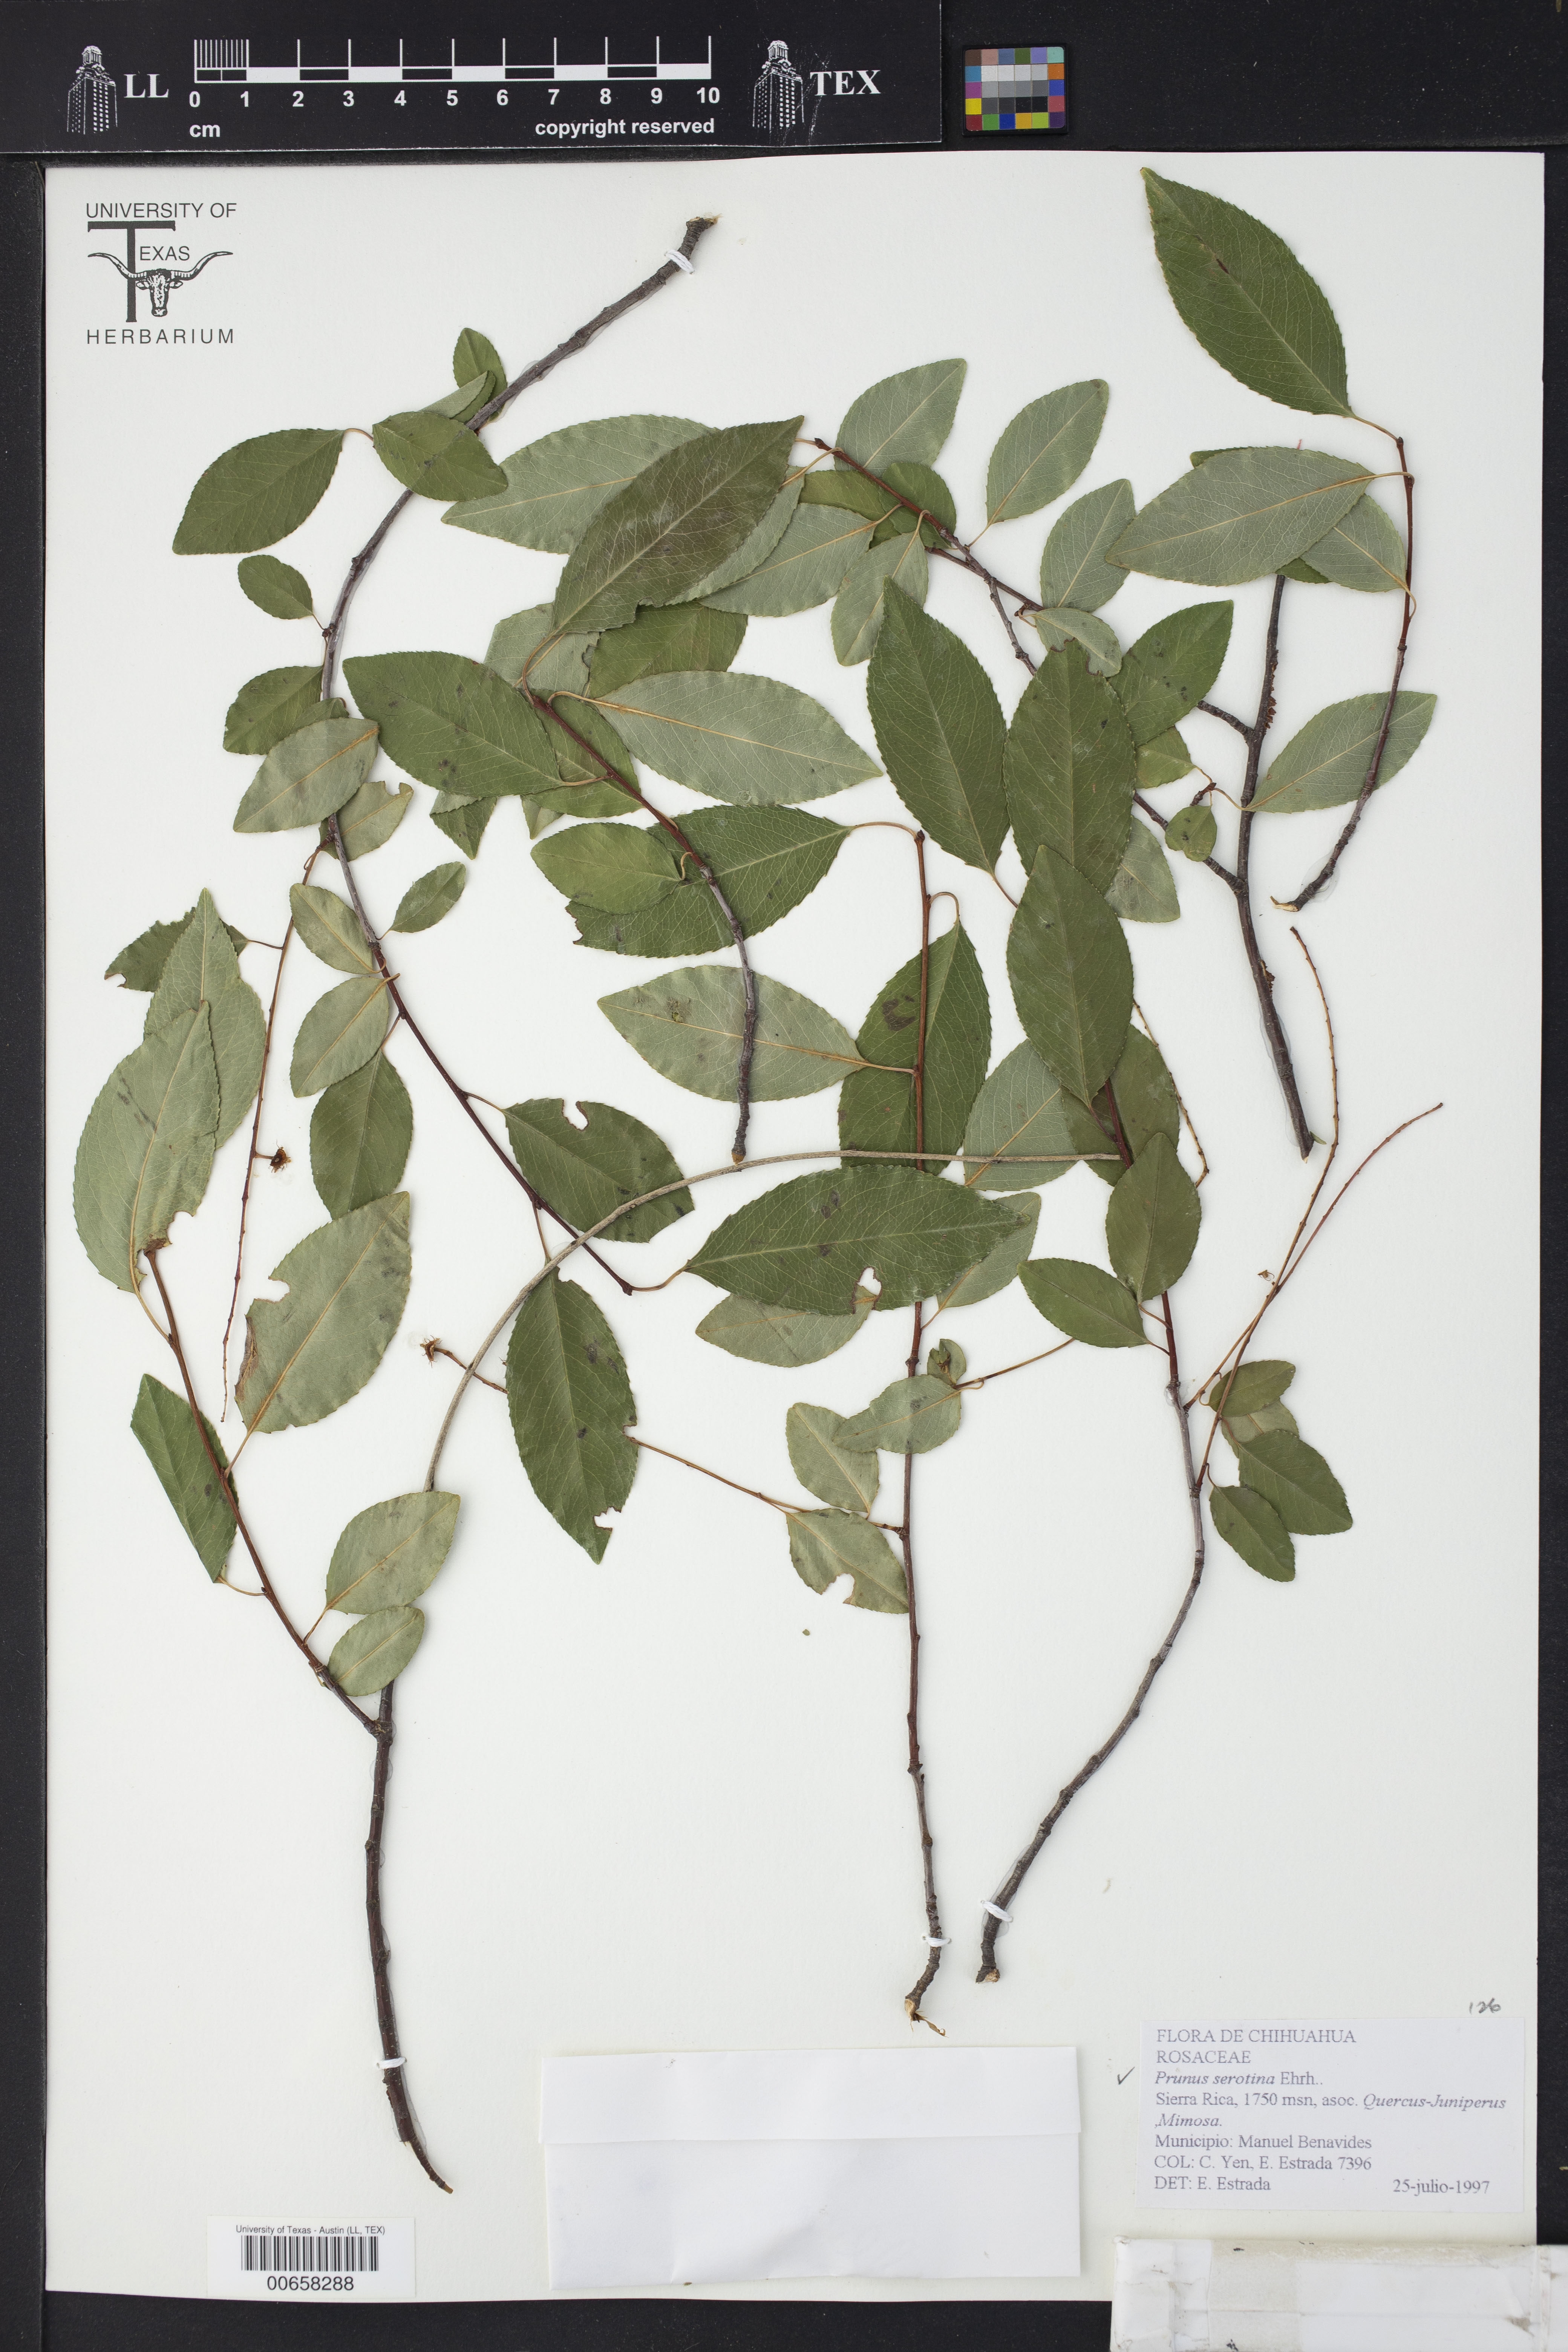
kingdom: Plantae
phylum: Tracheophyta
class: Magnoliopsida
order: Rosales
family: Rosaceae
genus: Prunus
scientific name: Prunus serotina
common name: Black cherry
